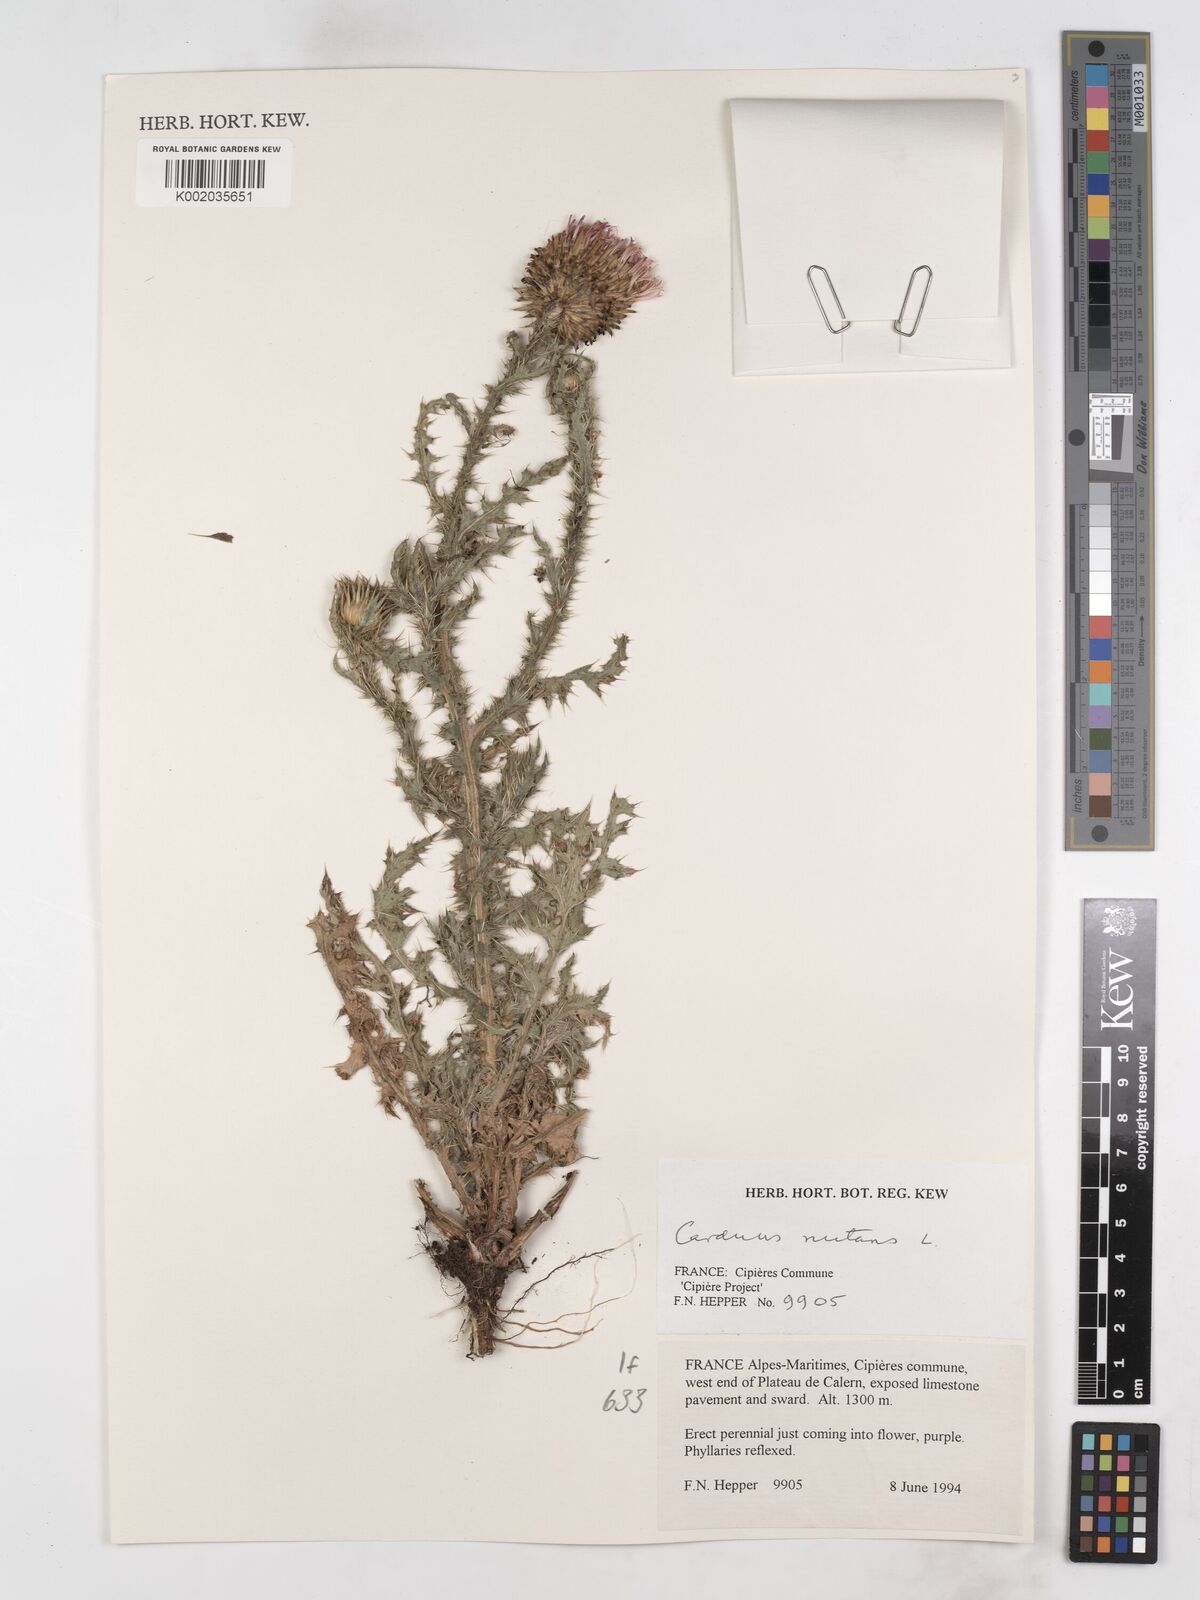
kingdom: Plantae
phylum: Tracheophyta
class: Magnoliopsida
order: Asterales
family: Asteraceae
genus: Carduus
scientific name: Carduus nutans
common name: Musk thistle
